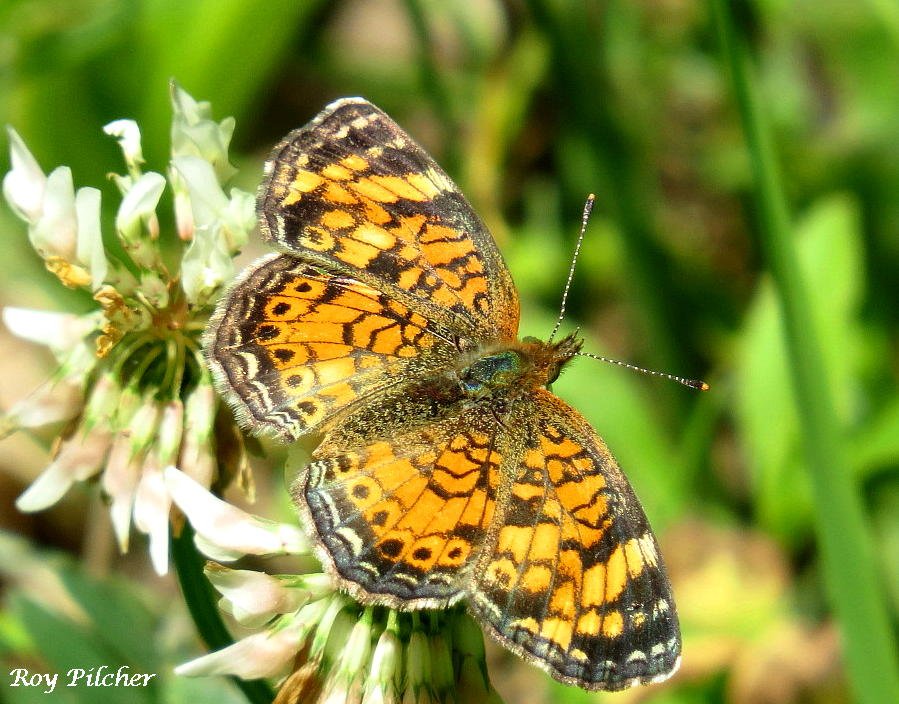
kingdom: Animalia
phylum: Arthropoda
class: Insecta
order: Lepidoptera
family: Nymphalidae
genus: Phyciodes
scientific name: Phyciodes tharos
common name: Pearl Crescent
